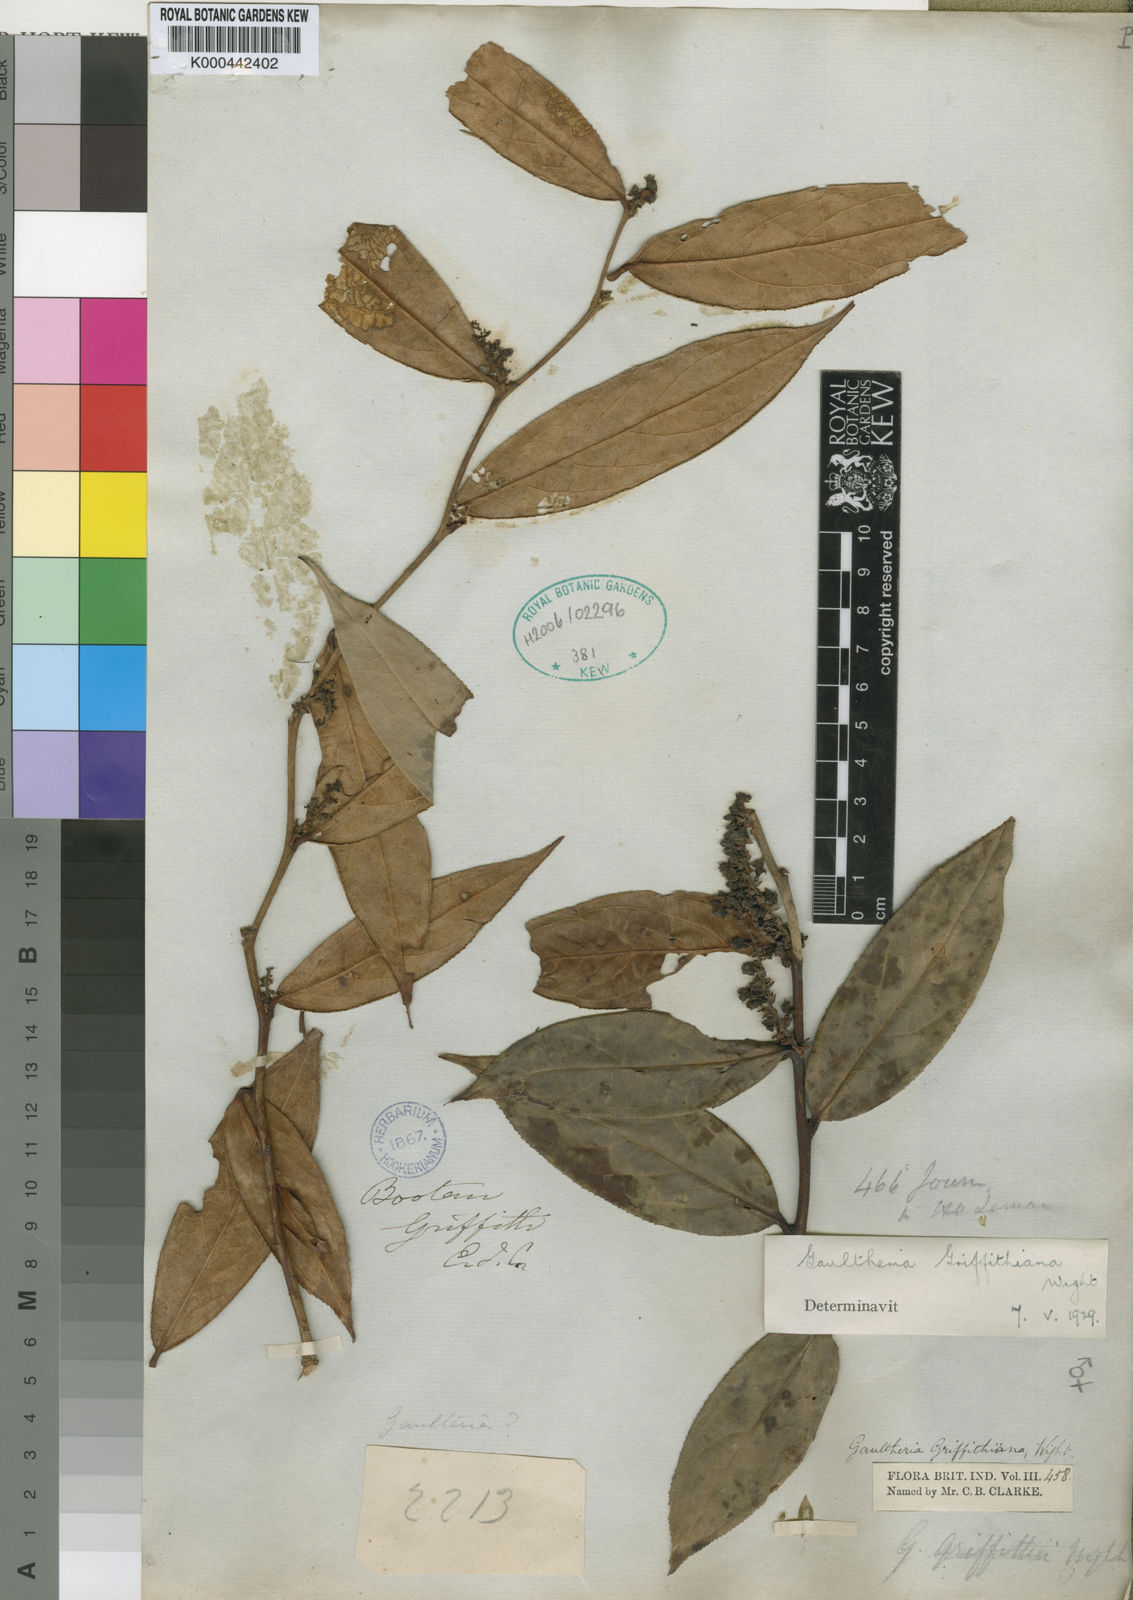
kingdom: Plantae
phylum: Tracheophyta
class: Magnoliopsida
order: Ericales
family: Ericaceae
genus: Gaultheria
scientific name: Gaultheria griffithiana
